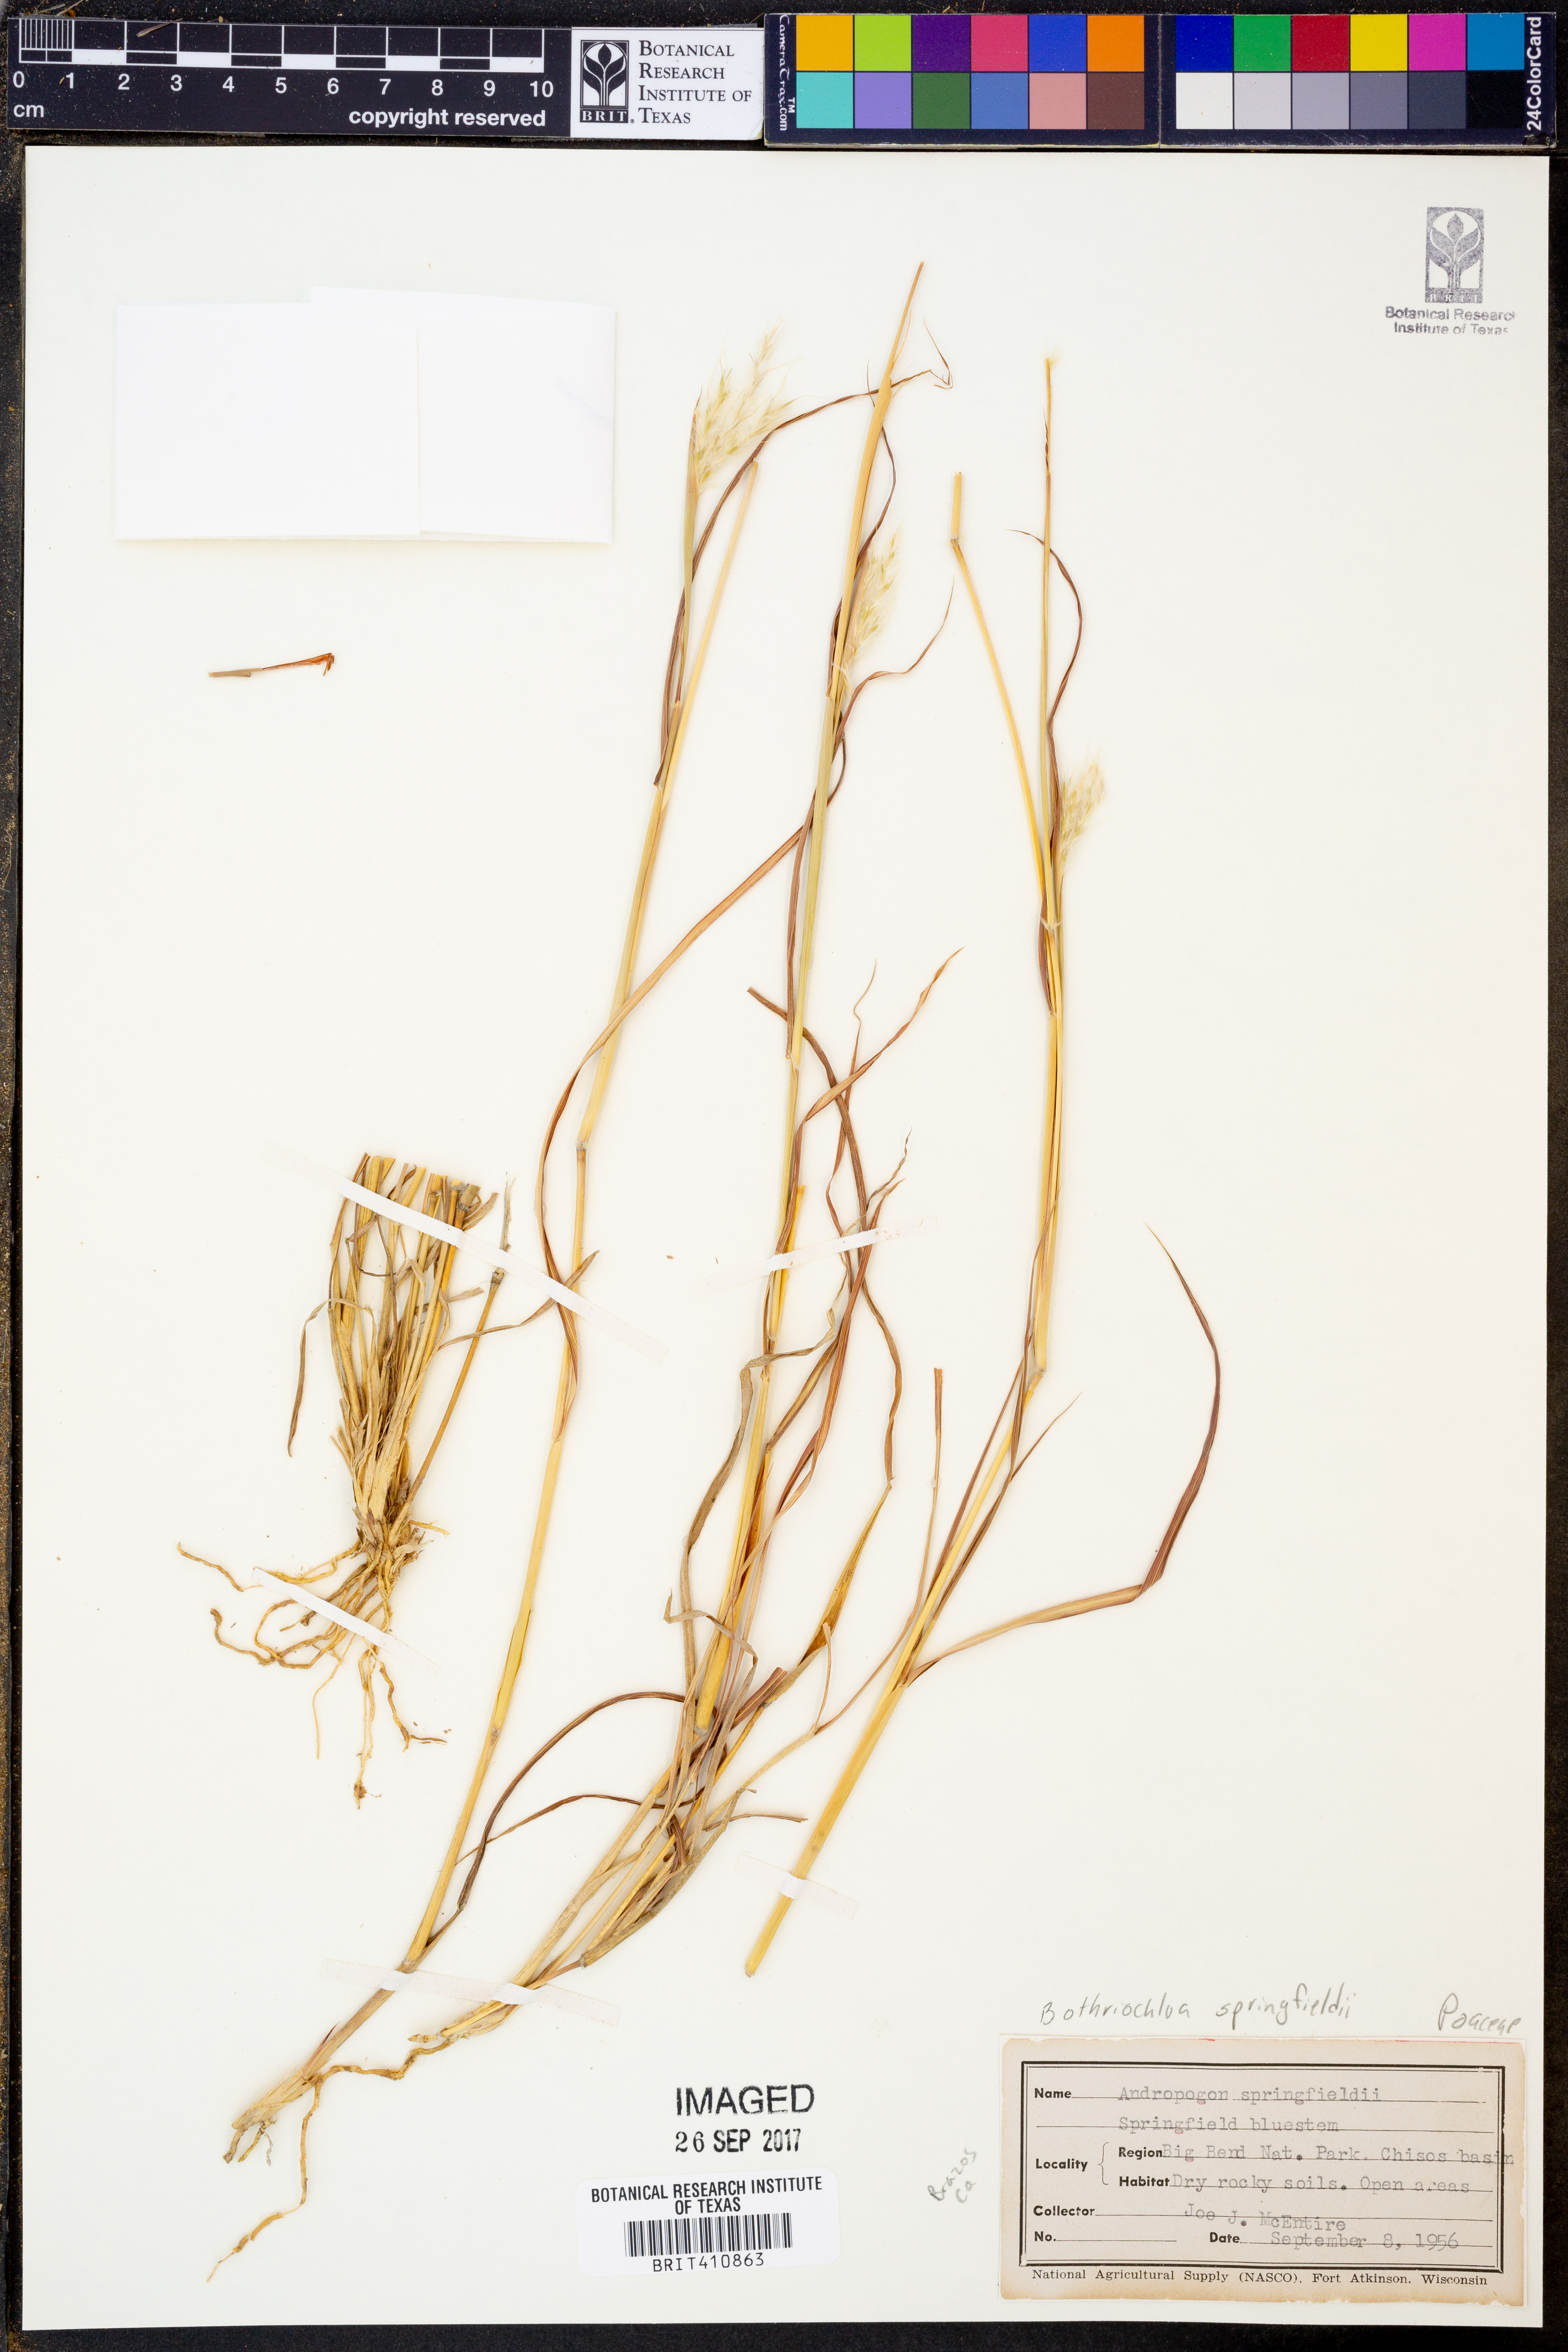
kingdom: Plantae
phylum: Tracheophyta
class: Liliopsida
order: Poales
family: Poaceae
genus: Bothriochloa
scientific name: Bothriochloa springfieldii
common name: Springfield bluestem
